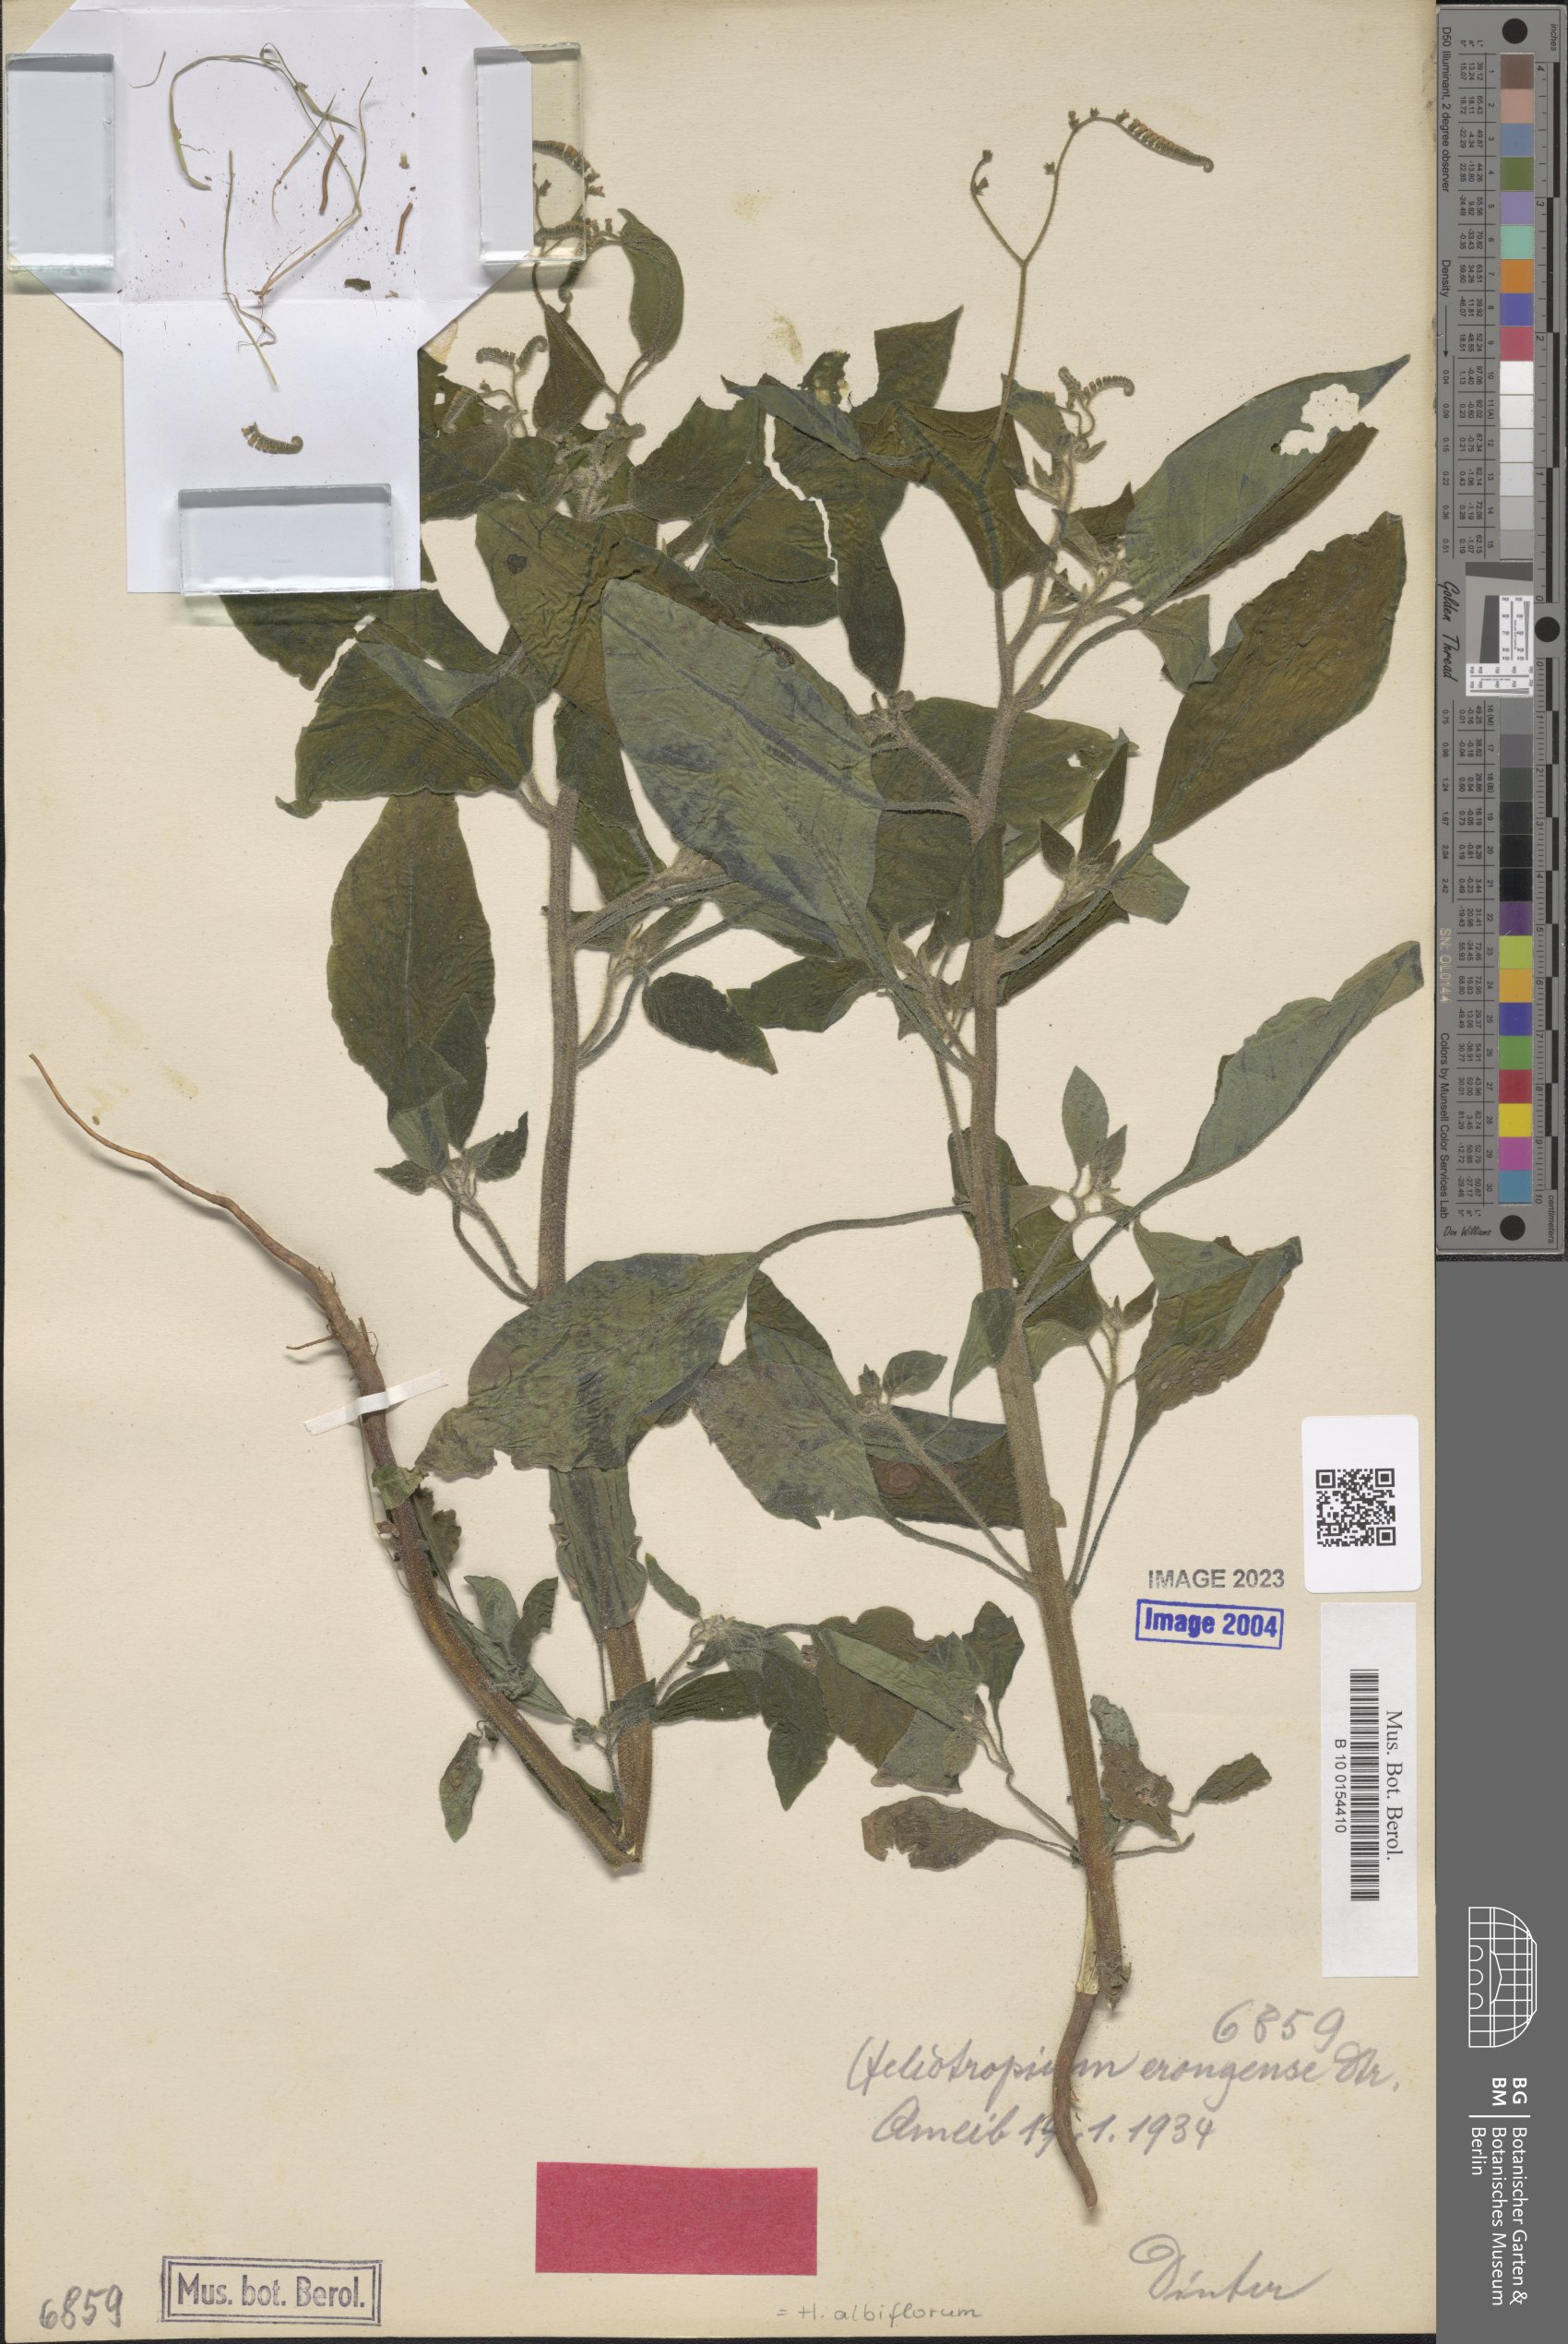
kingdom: Plantae
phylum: Tracheophyta
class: Magnoliopsida
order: Boraginales
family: Heliotropiaceae
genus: Heliotropium
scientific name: Heliotropium albiflorum
